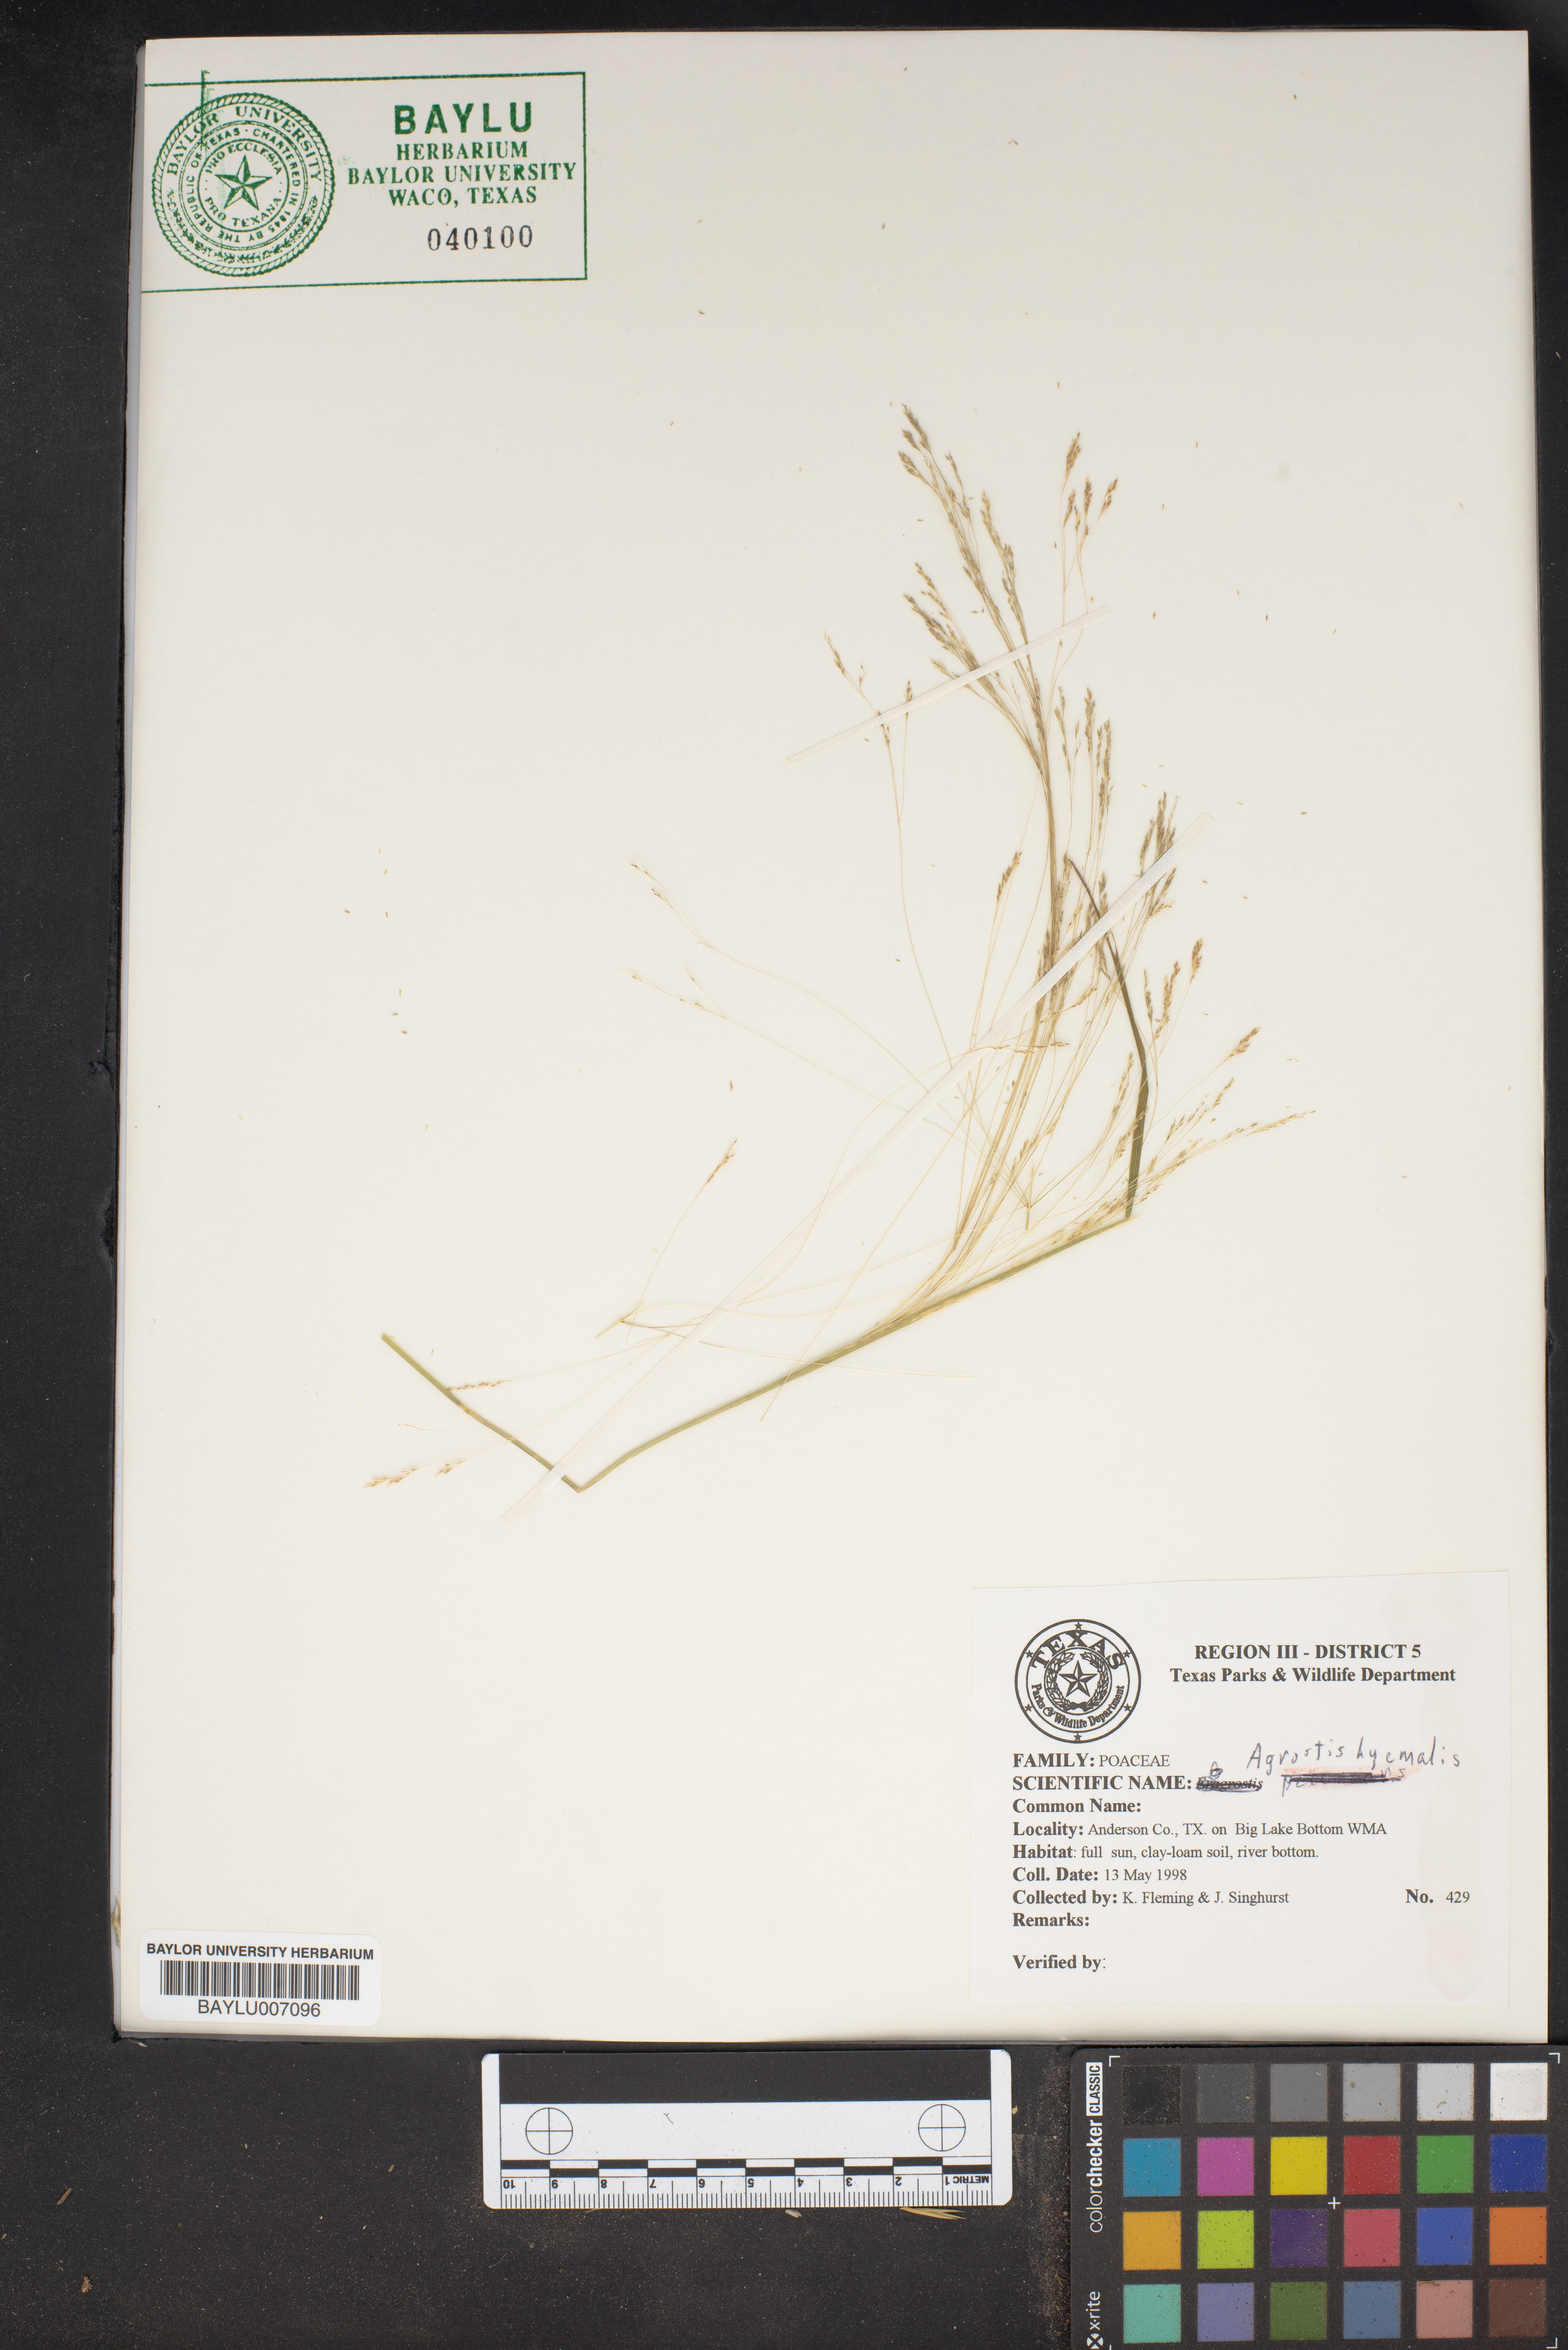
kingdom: Plantae
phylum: Tracheophyta
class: Liliopsida
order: Poales
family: Poaceae
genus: Agrostis
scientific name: Agrostis hyemalis
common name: Small bent
